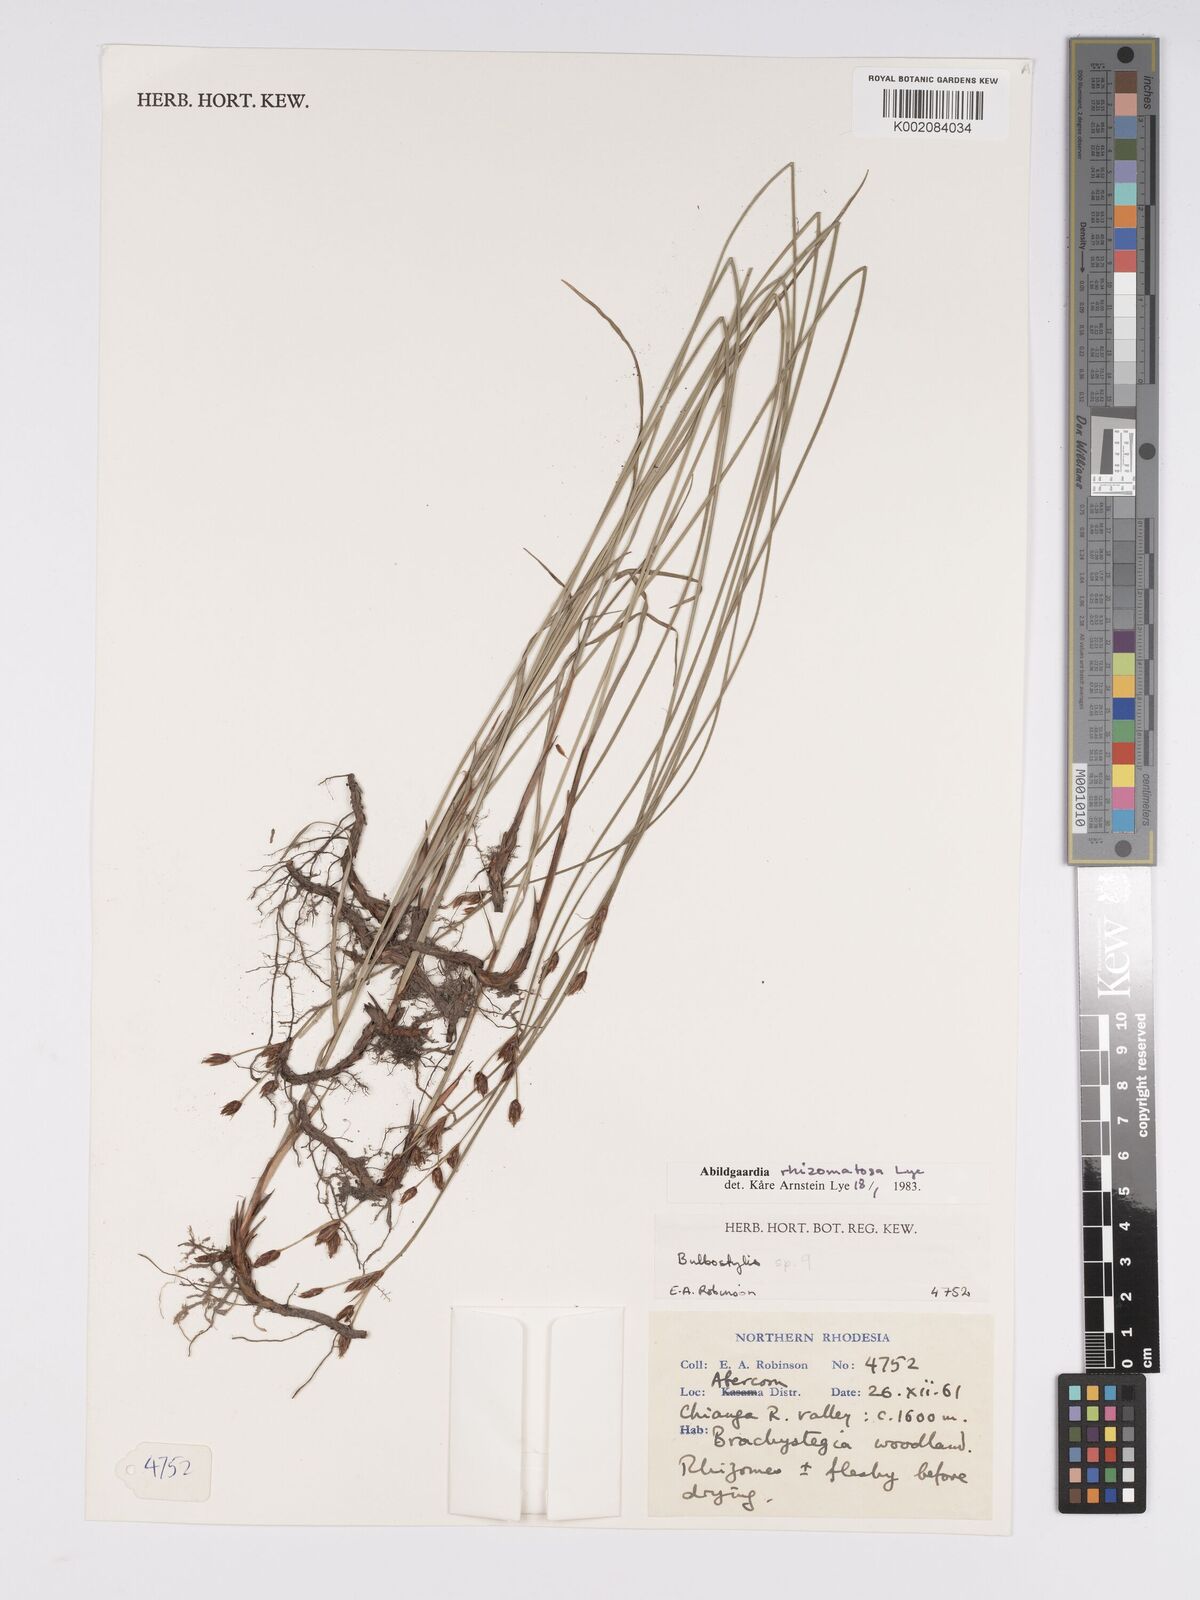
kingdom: Plantae
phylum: Tracheophyta
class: Liliopsida
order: Poales
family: Cyperaceae
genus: Bulbostylis
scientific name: Bulbostylis rhizomatosa
